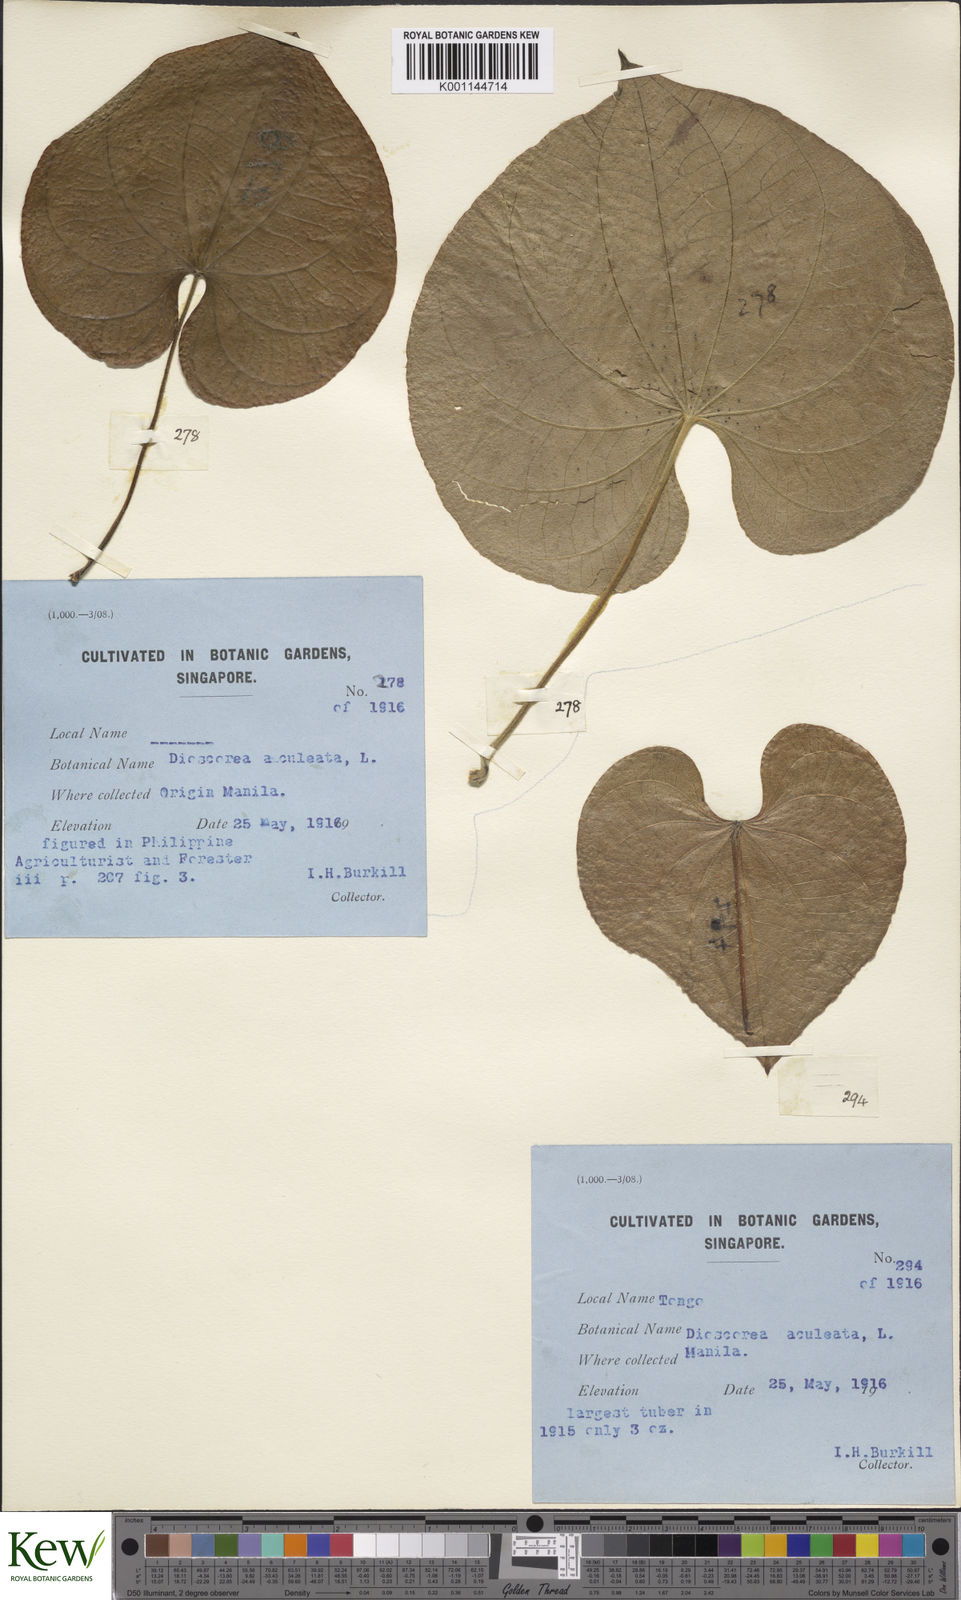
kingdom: Plantae
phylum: Tracheophyta
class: Liliopsida
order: Dioscoreales
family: Dioscoreaceae
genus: Dioscorea
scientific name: Dioscorea esculenta
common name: Chinese yam
